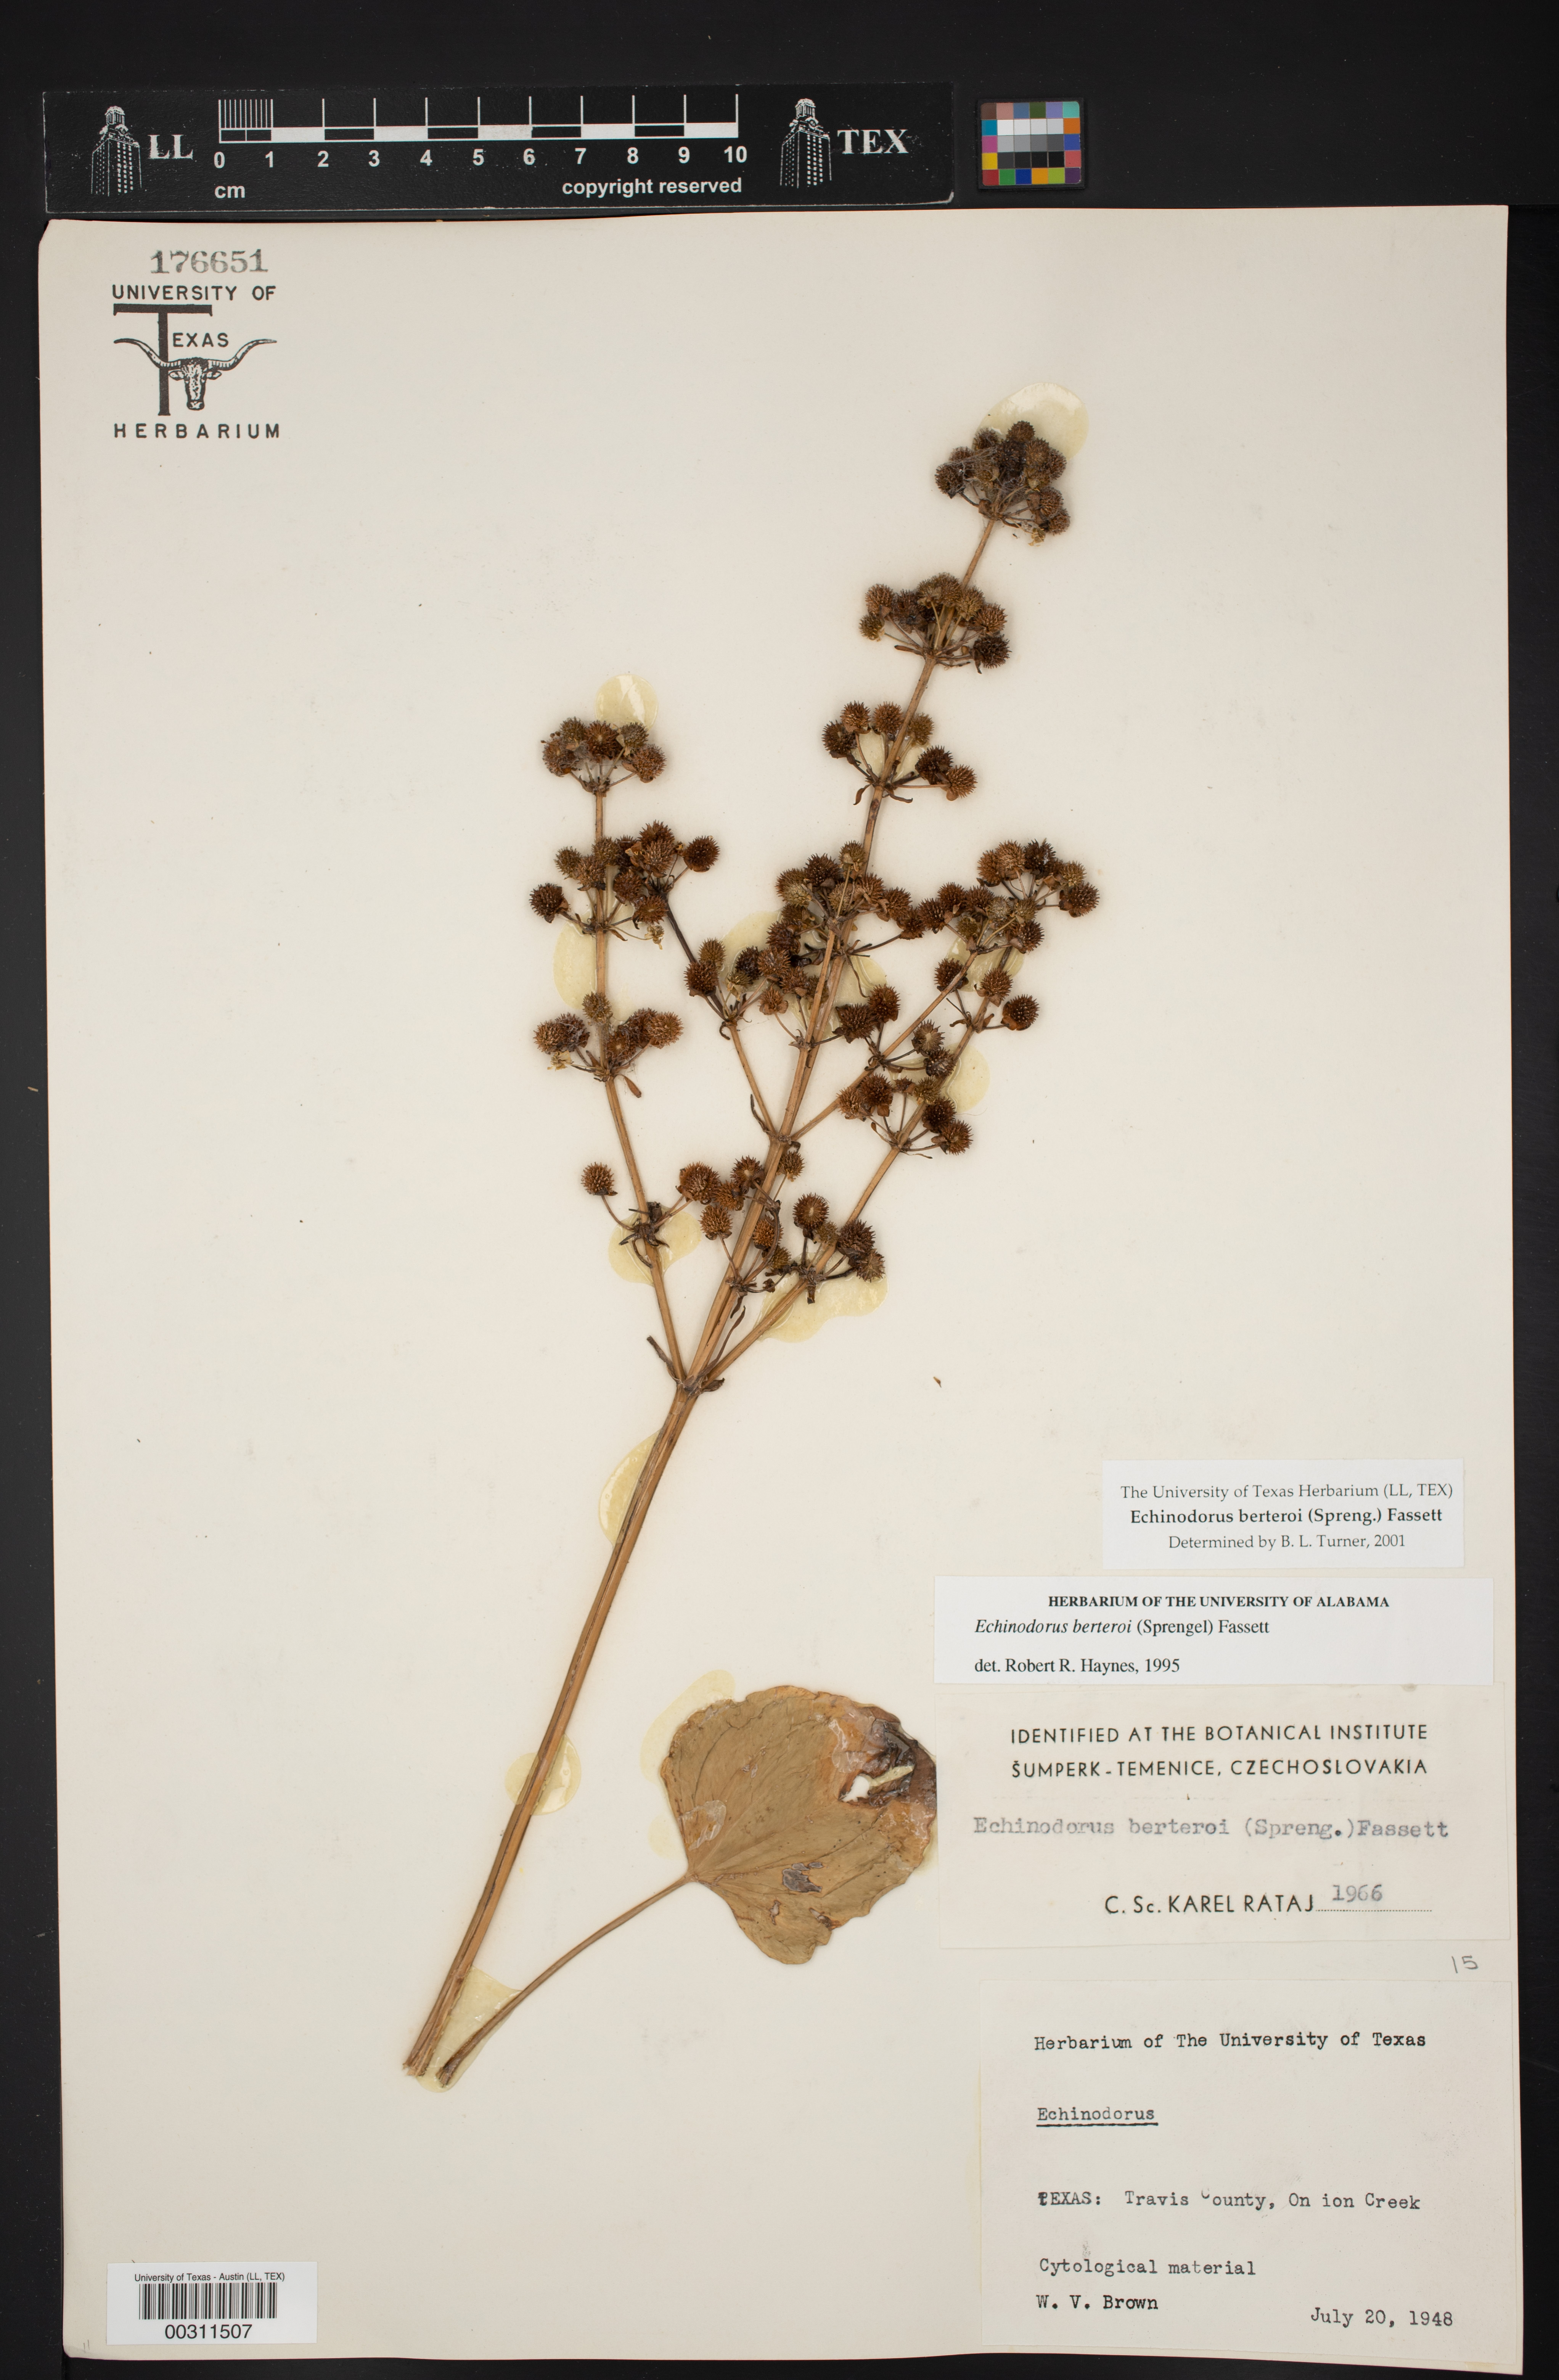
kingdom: Plantae
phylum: Tracheophyta
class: Liliopsida
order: Alismatales
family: Alismataceae
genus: Echinodorus
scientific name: Echinodorus berteroi
